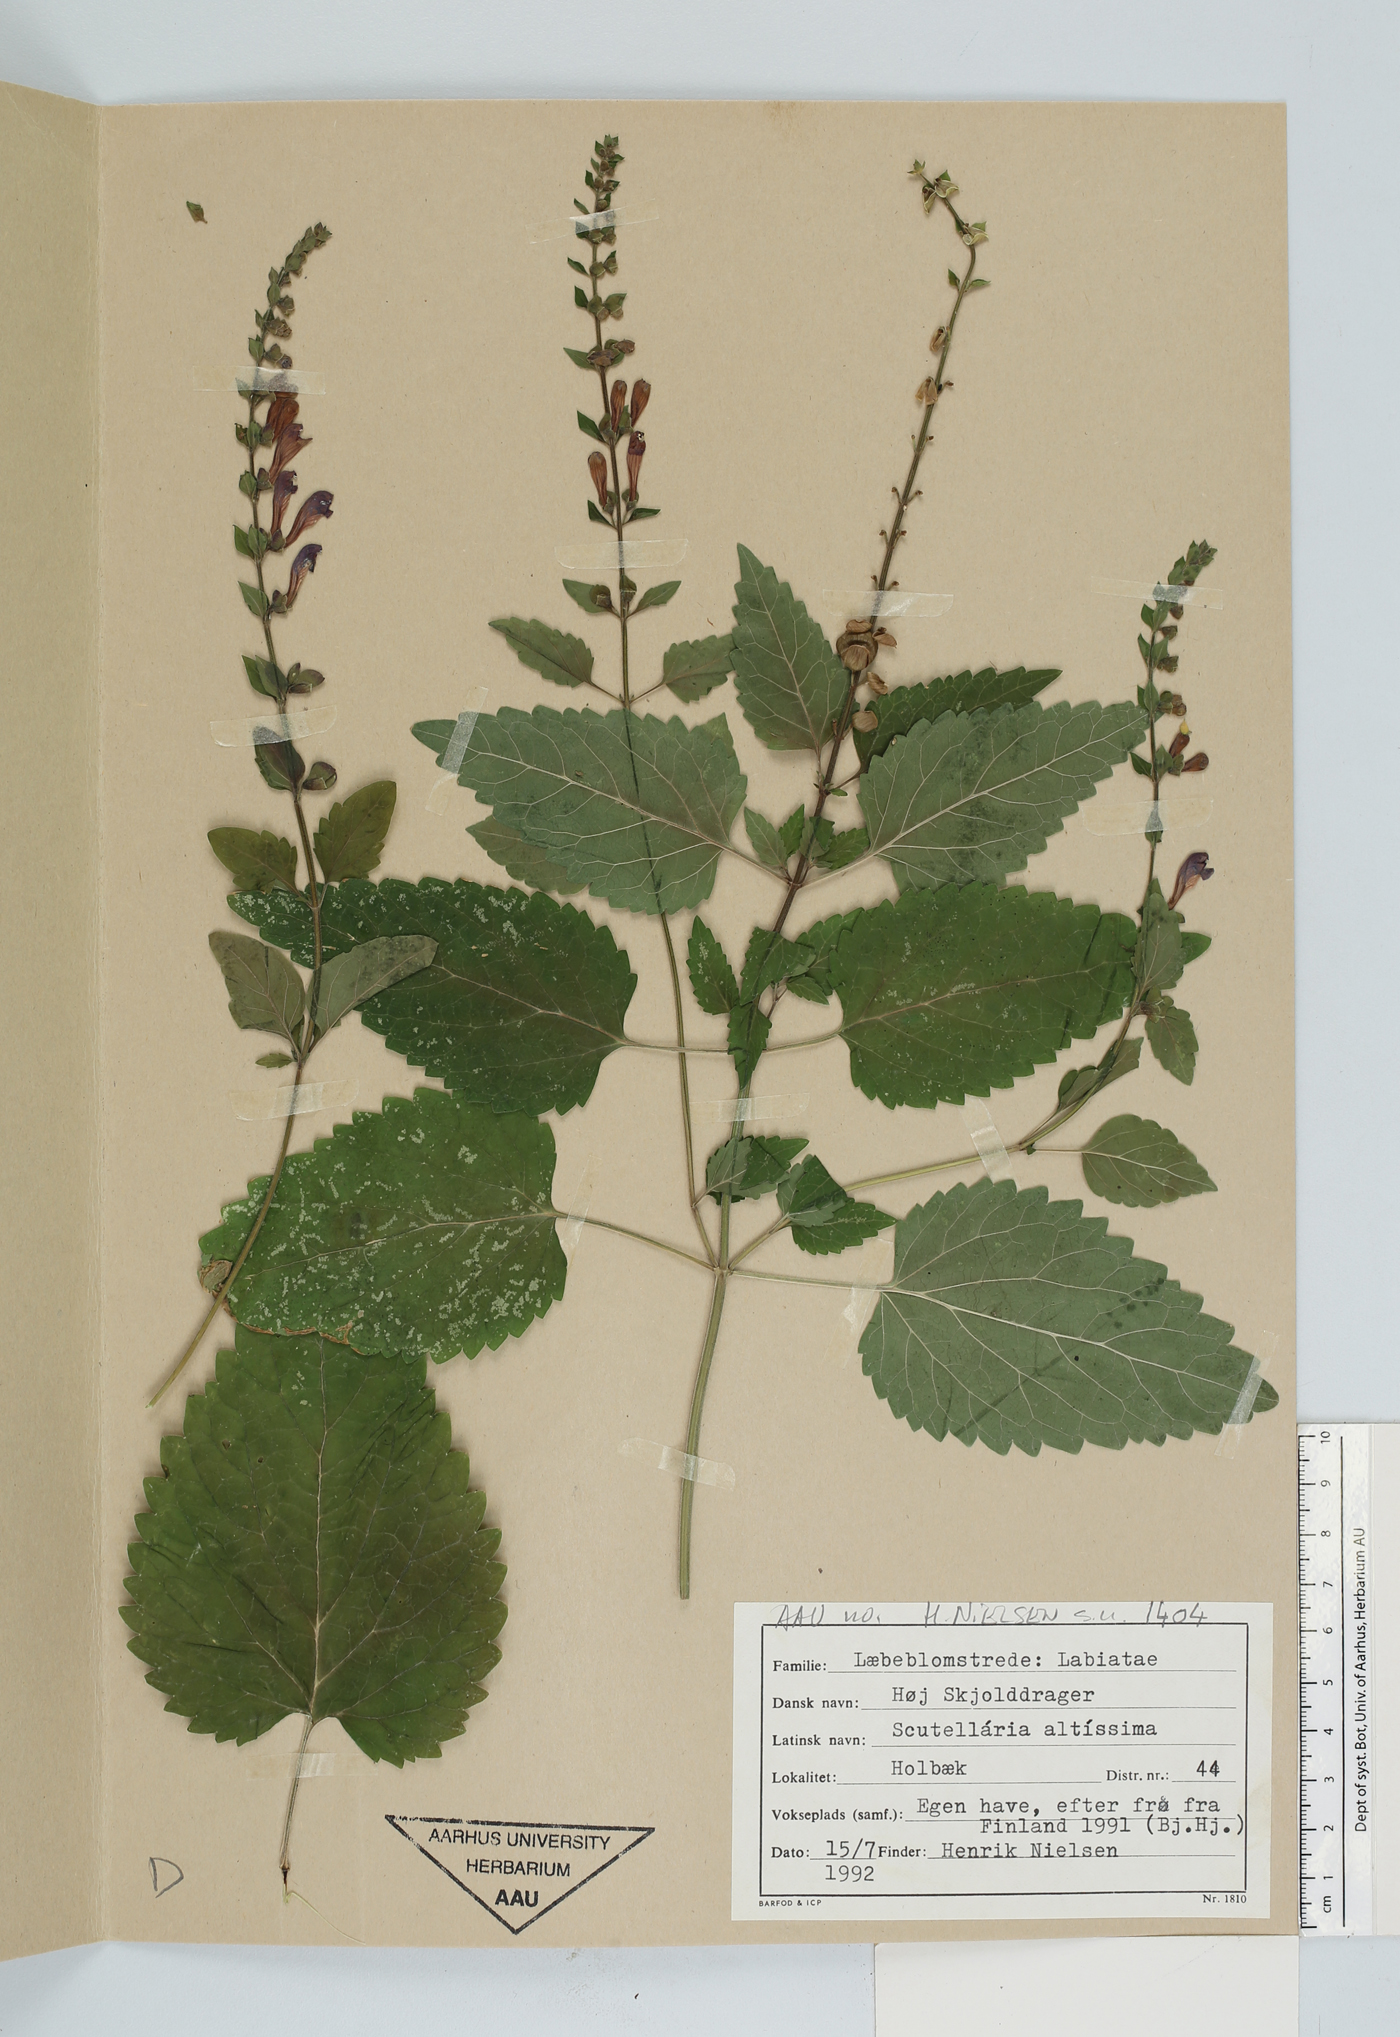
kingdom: Plantae
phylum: Tracheophyta
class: Magnoliopsida
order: Lamiales
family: Lamiaceae
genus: Scutellaria
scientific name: Scutellaria altissima
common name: Somerset skullcap
